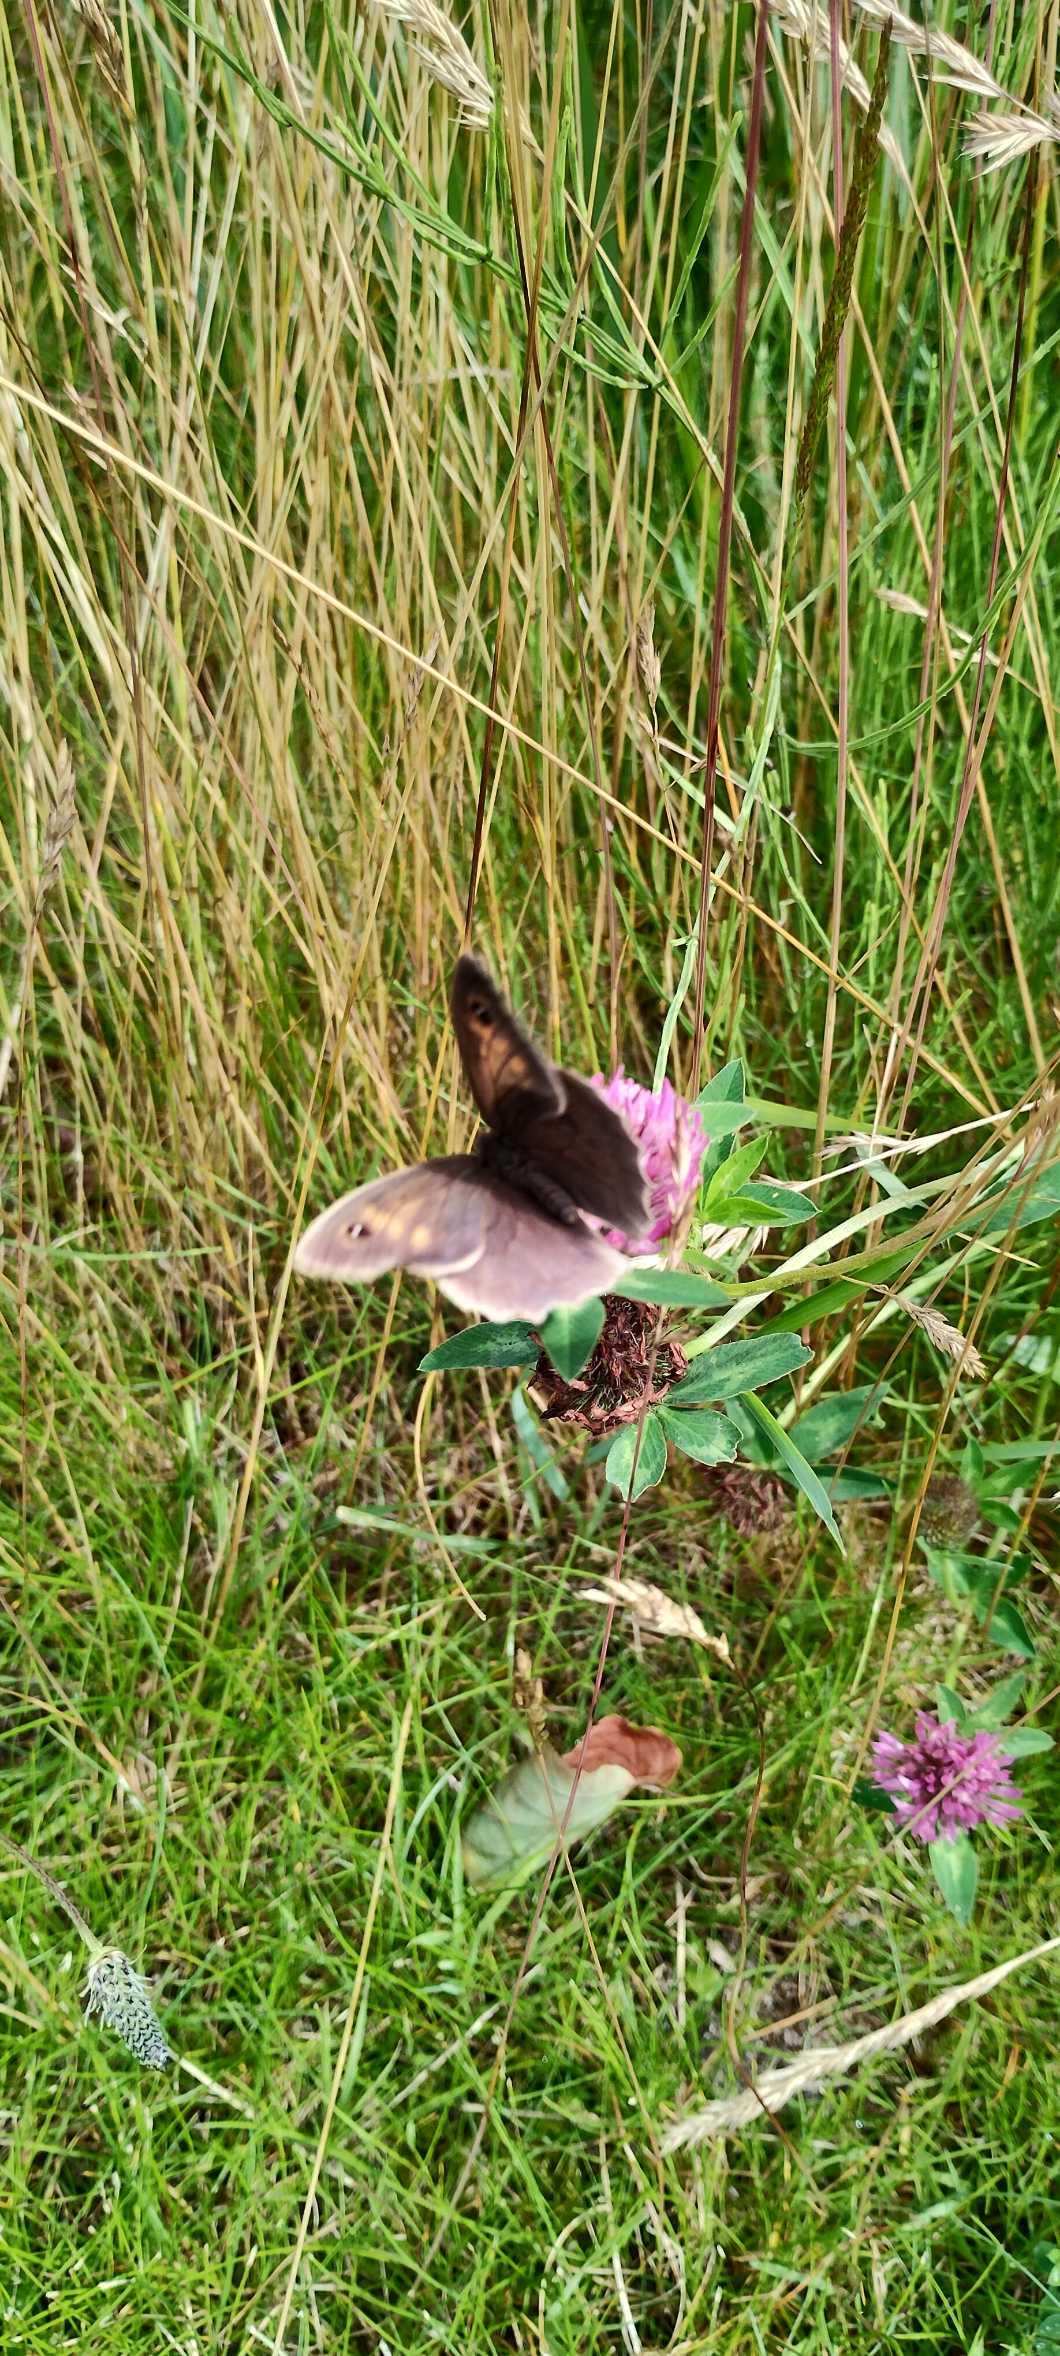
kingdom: Animalia
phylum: Arthropoda
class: Insecta
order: Lepidoptera
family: Nymphalidae
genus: Maniola
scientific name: Maniola jurtina
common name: Græsrandøje
